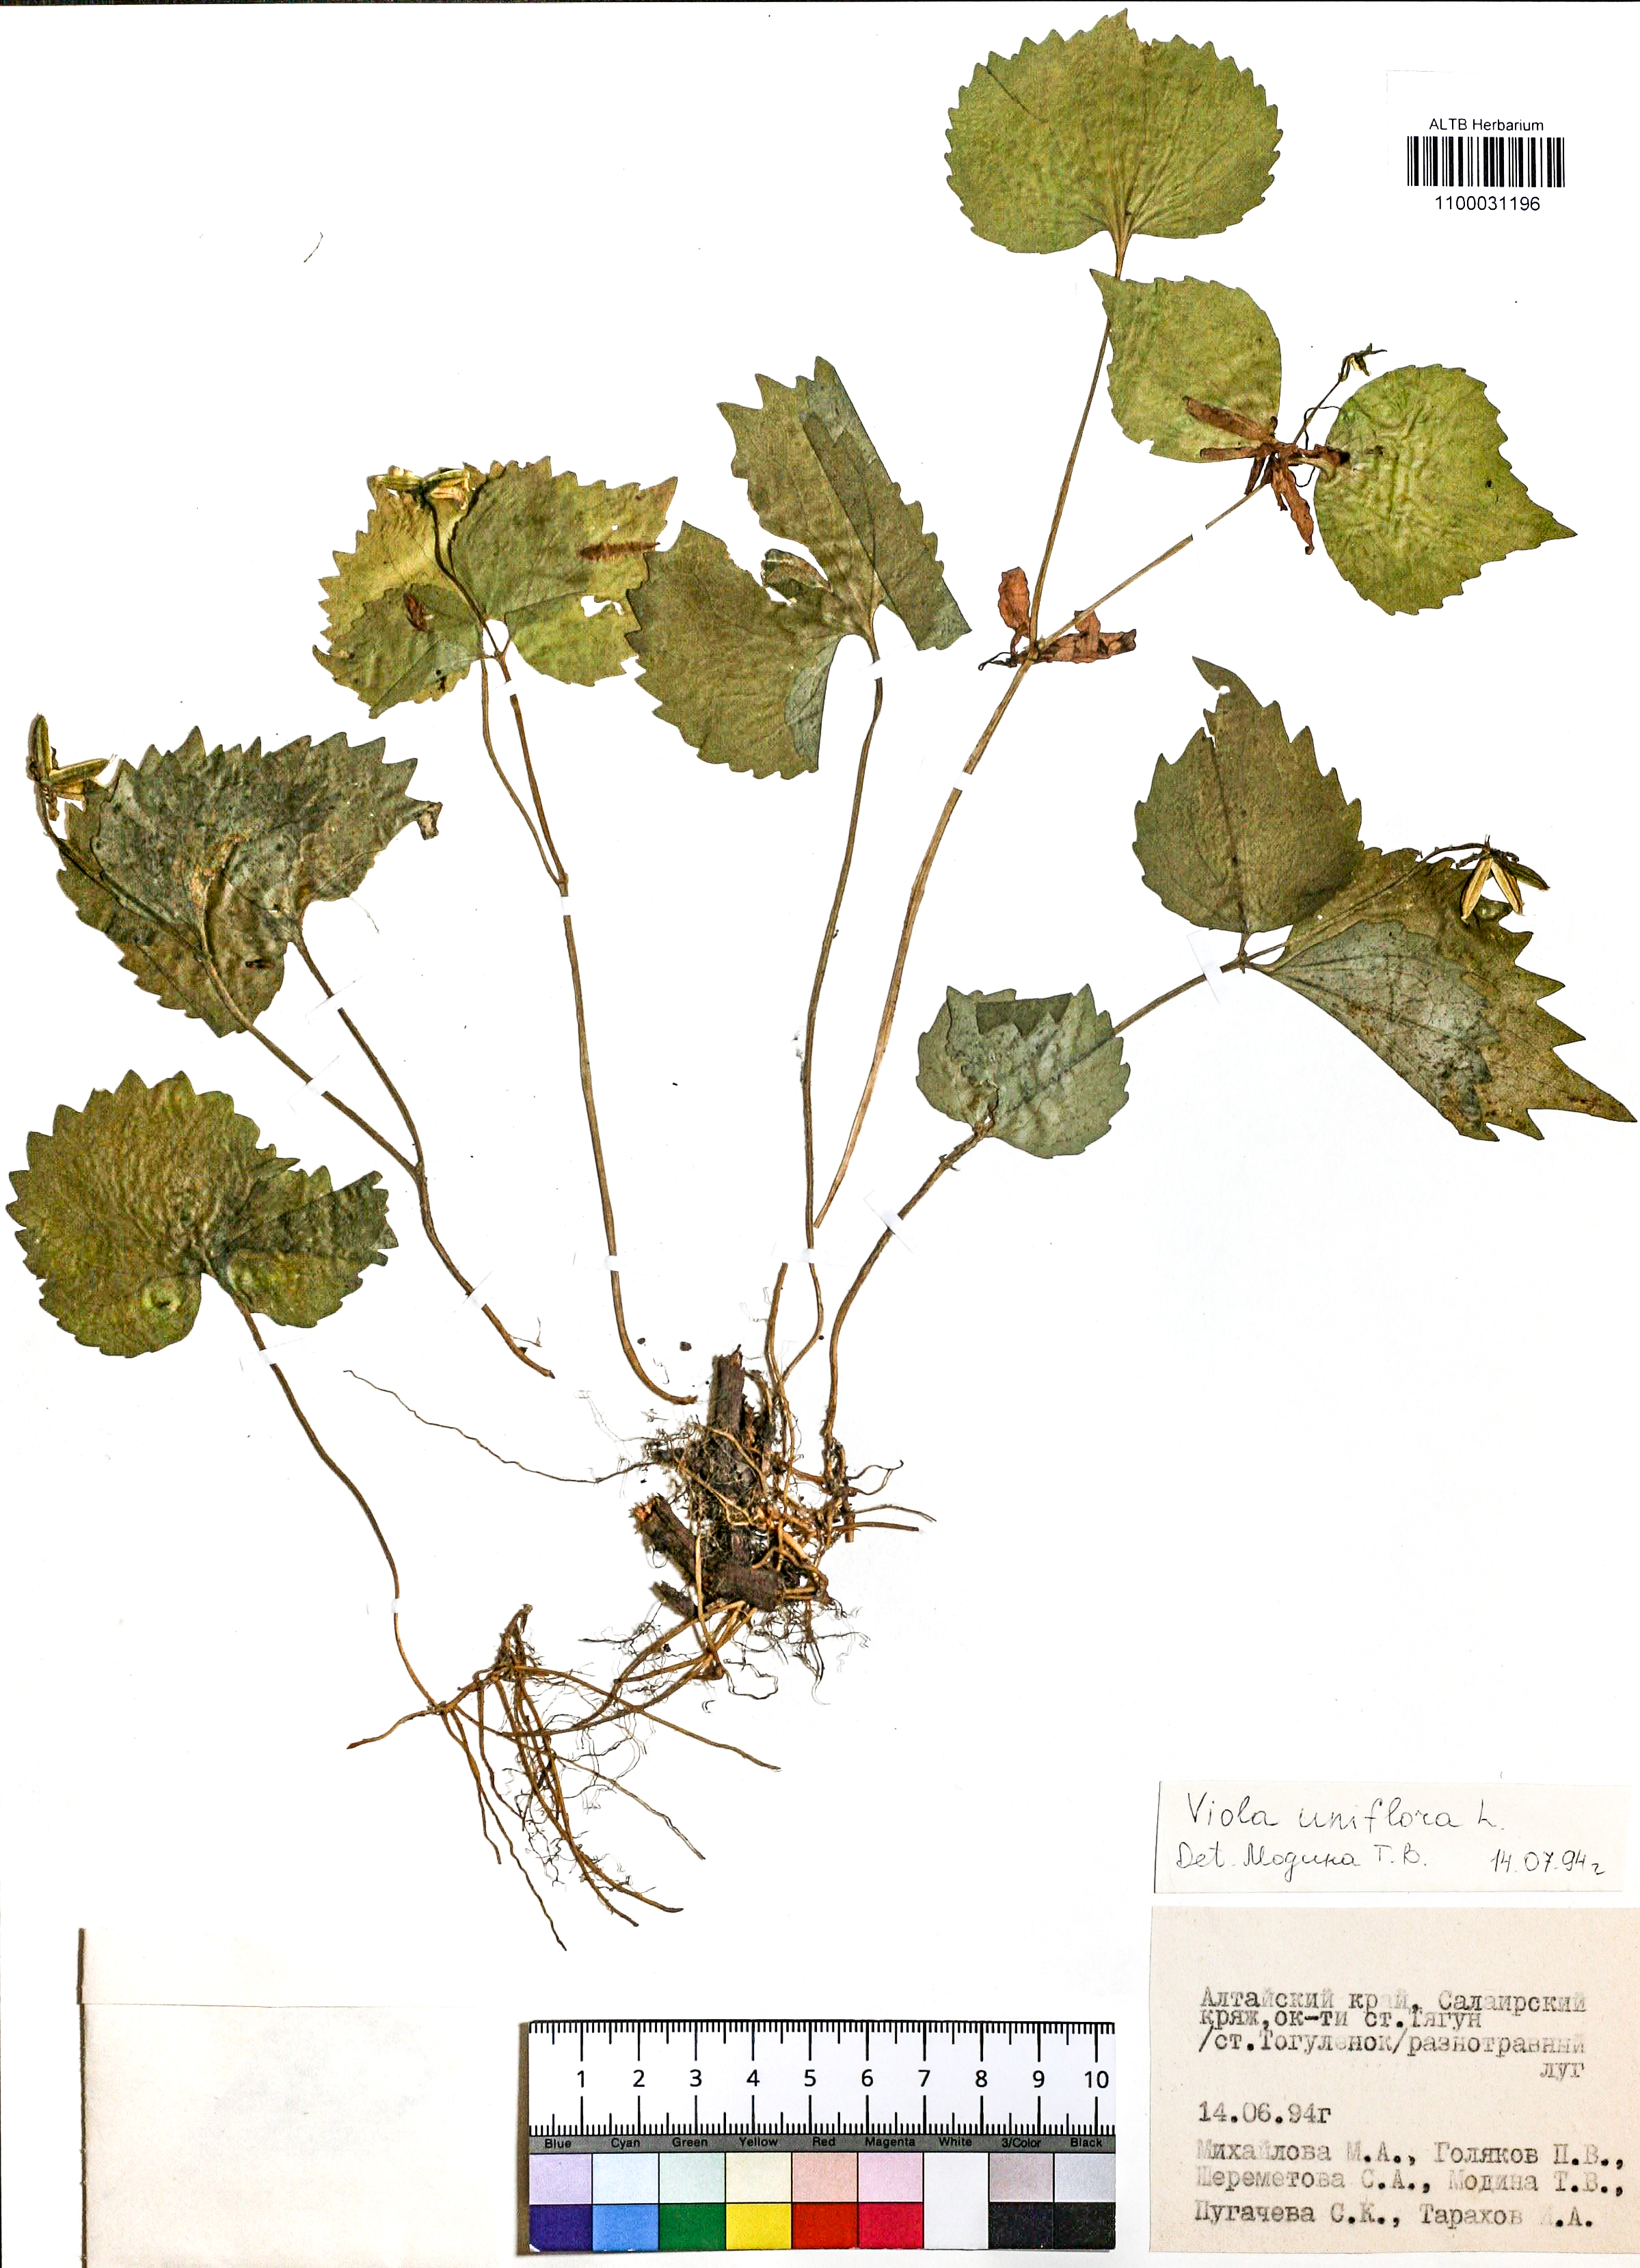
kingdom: Plantae
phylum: Tracheophyta
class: Magnoliopsida
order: Malpighiales
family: Violaceae
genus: Viola
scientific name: Viola uniflora
